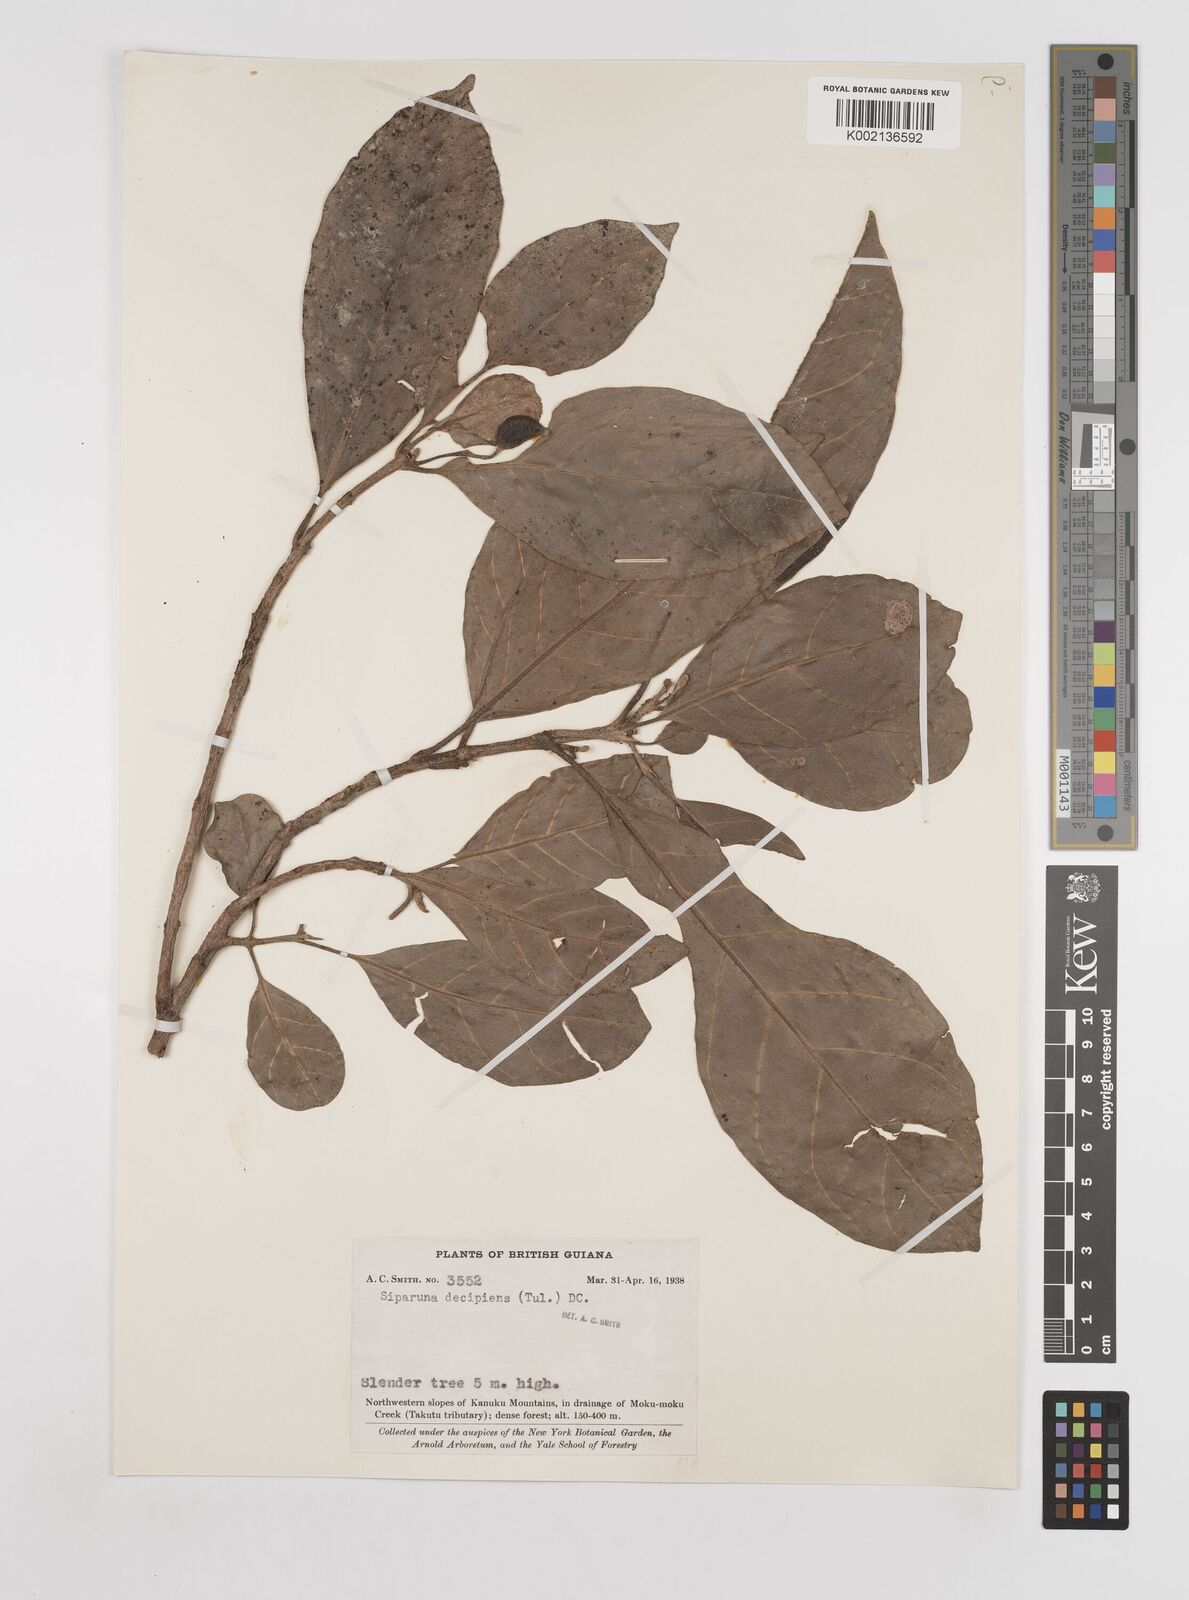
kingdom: Plantae
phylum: Tracheophyta
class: Magnoliopsida
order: Laurales
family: Siparunaceae
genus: Siparuna
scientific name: Siparuna decipiens
